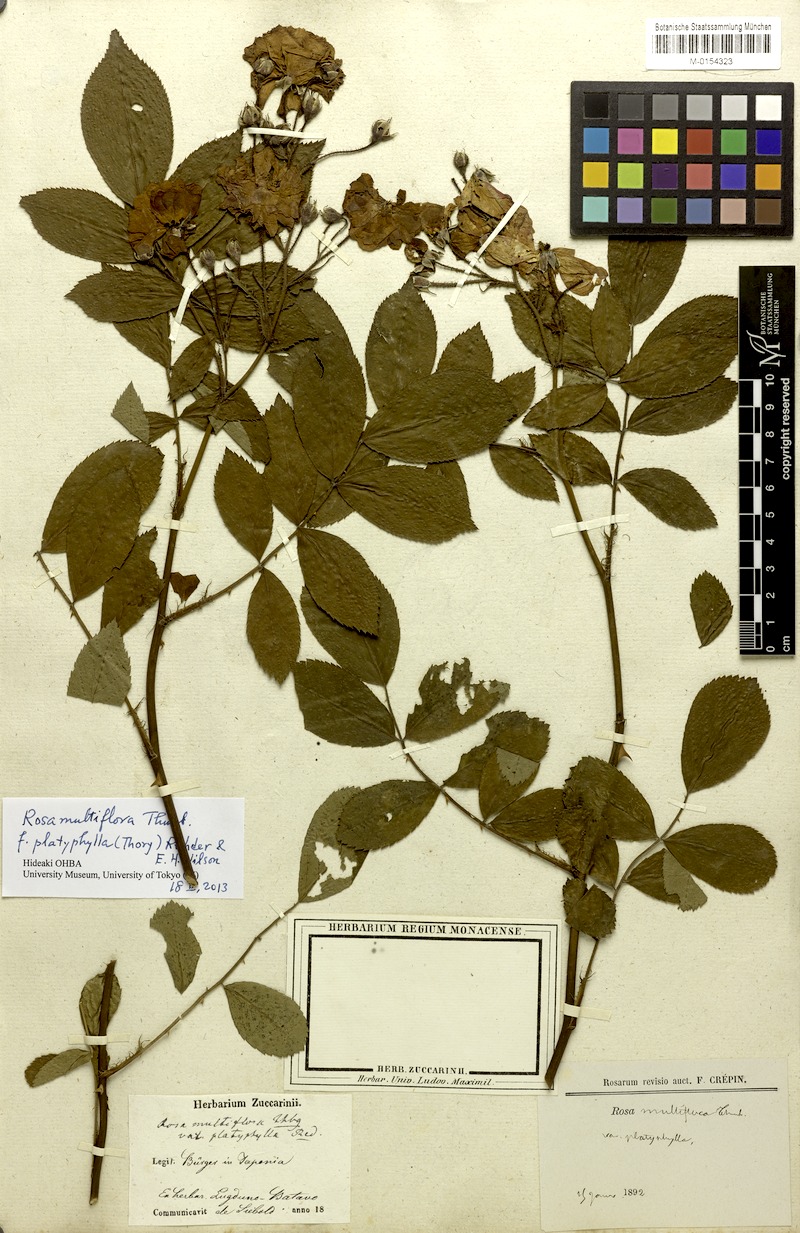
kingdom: Plantae
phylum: Tracheophyta
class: Magnoliopsida
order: Rosales
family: Rosaceae
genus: Rosa
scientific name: Rosa multiflora
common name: Multiflora rose
